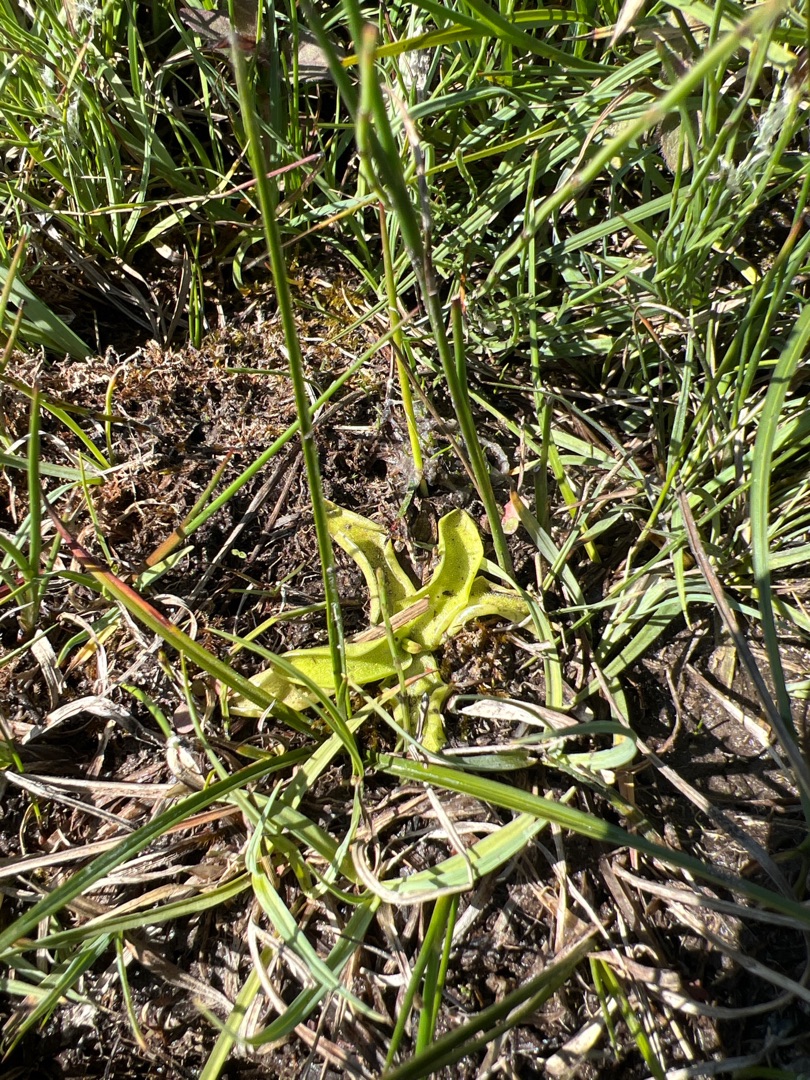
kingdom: Plantae
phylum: Tracheophyta
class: Magnoliopsida
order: Lamiales
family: Lentibulariaceae
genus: Pinguicula
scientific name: Pinguicula vulgaris
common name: Vibefedt
